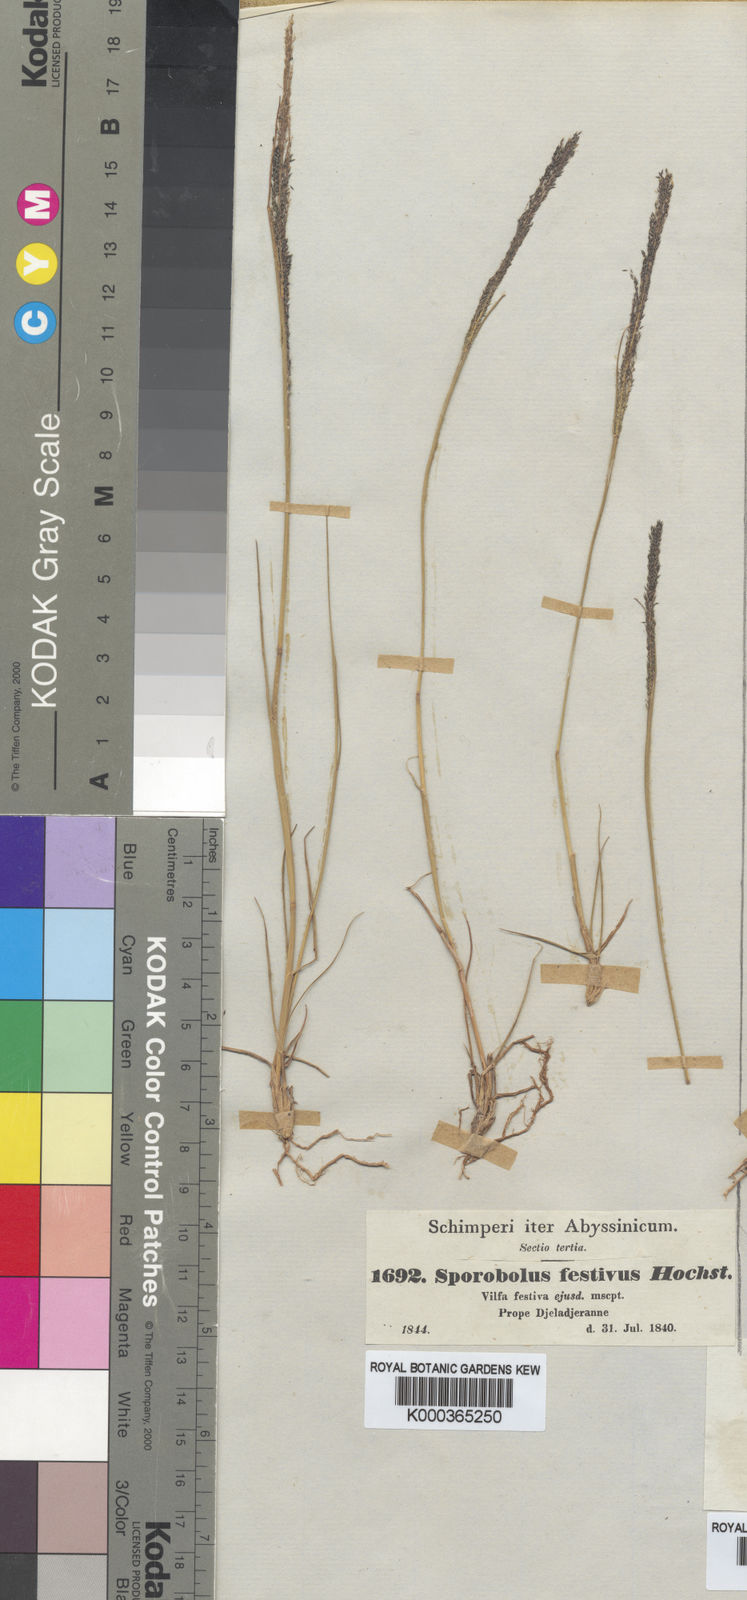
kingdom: Plantae
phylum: Tracheophyta
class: Liliopsida
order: Poales
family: Poaceae
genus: Sporobolus
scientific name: Sporobolus festivus
